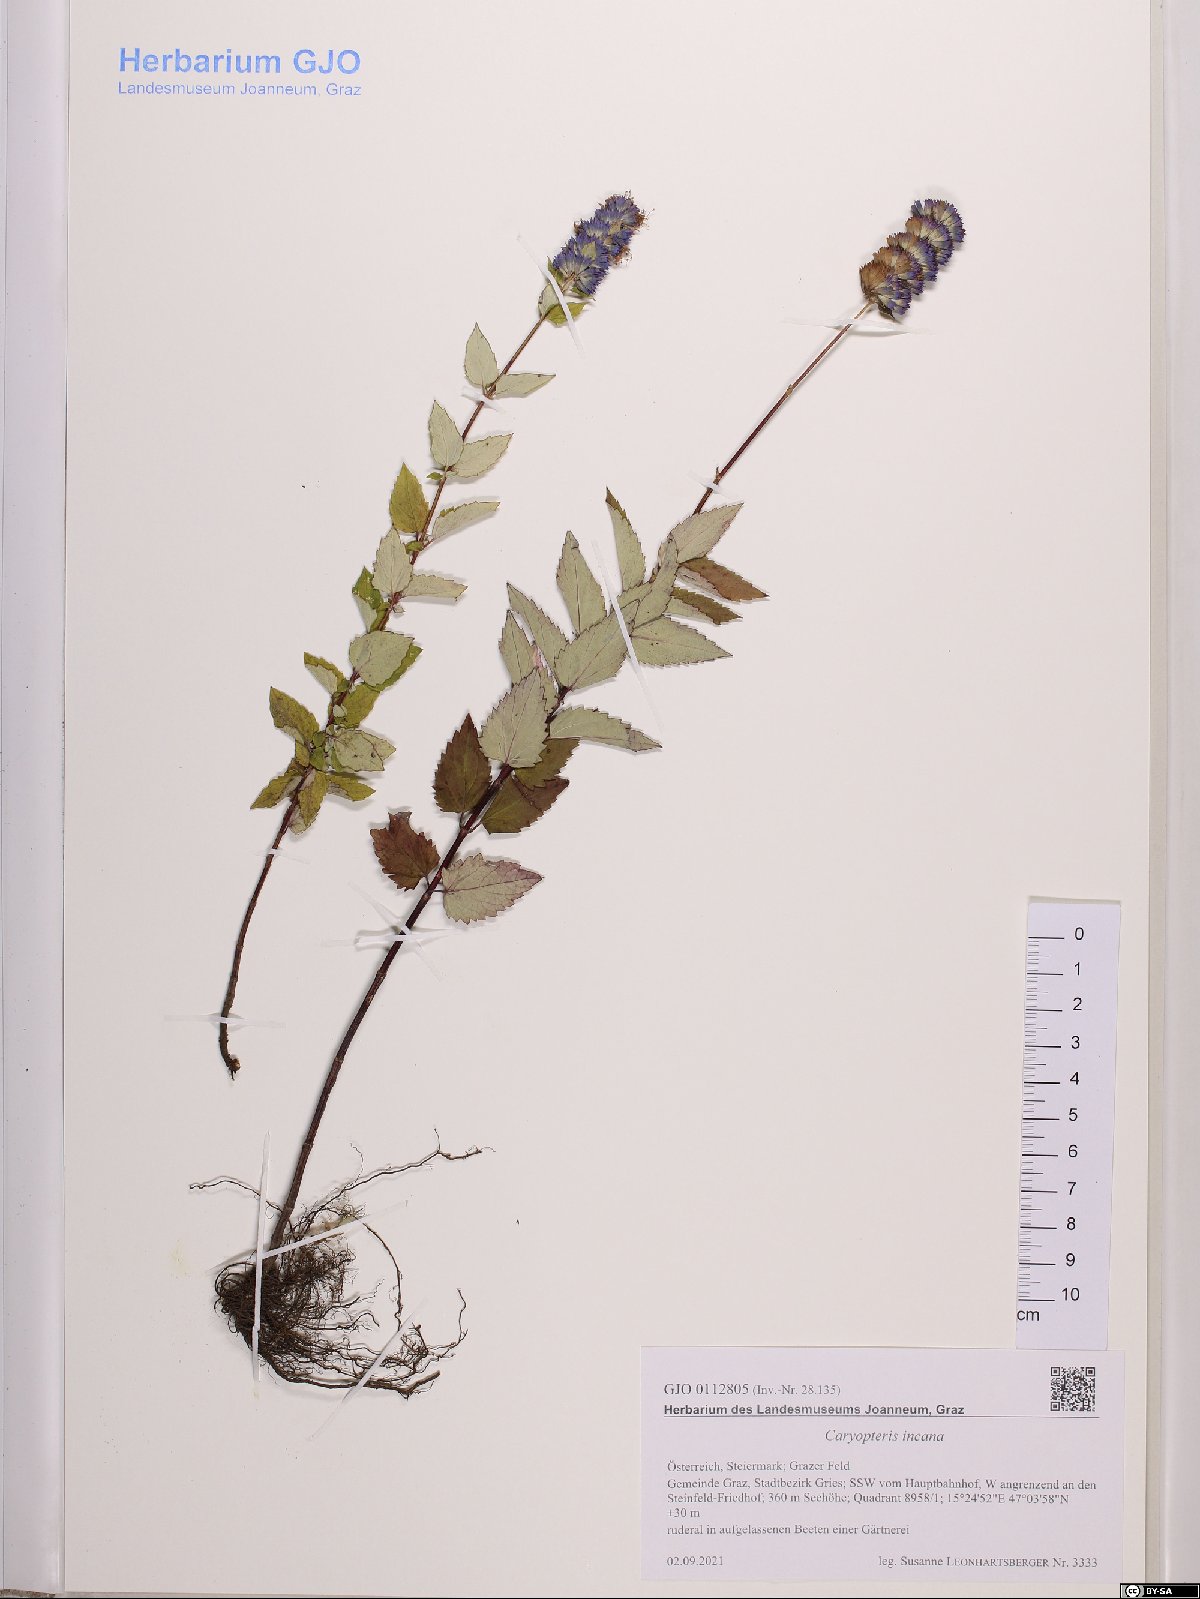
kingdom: Plantae
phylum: Tracheophyta
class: Magnoliopsida
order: Lamiales
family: Lamiaceae
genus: Caryopteris
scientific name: Caryopteris incana
